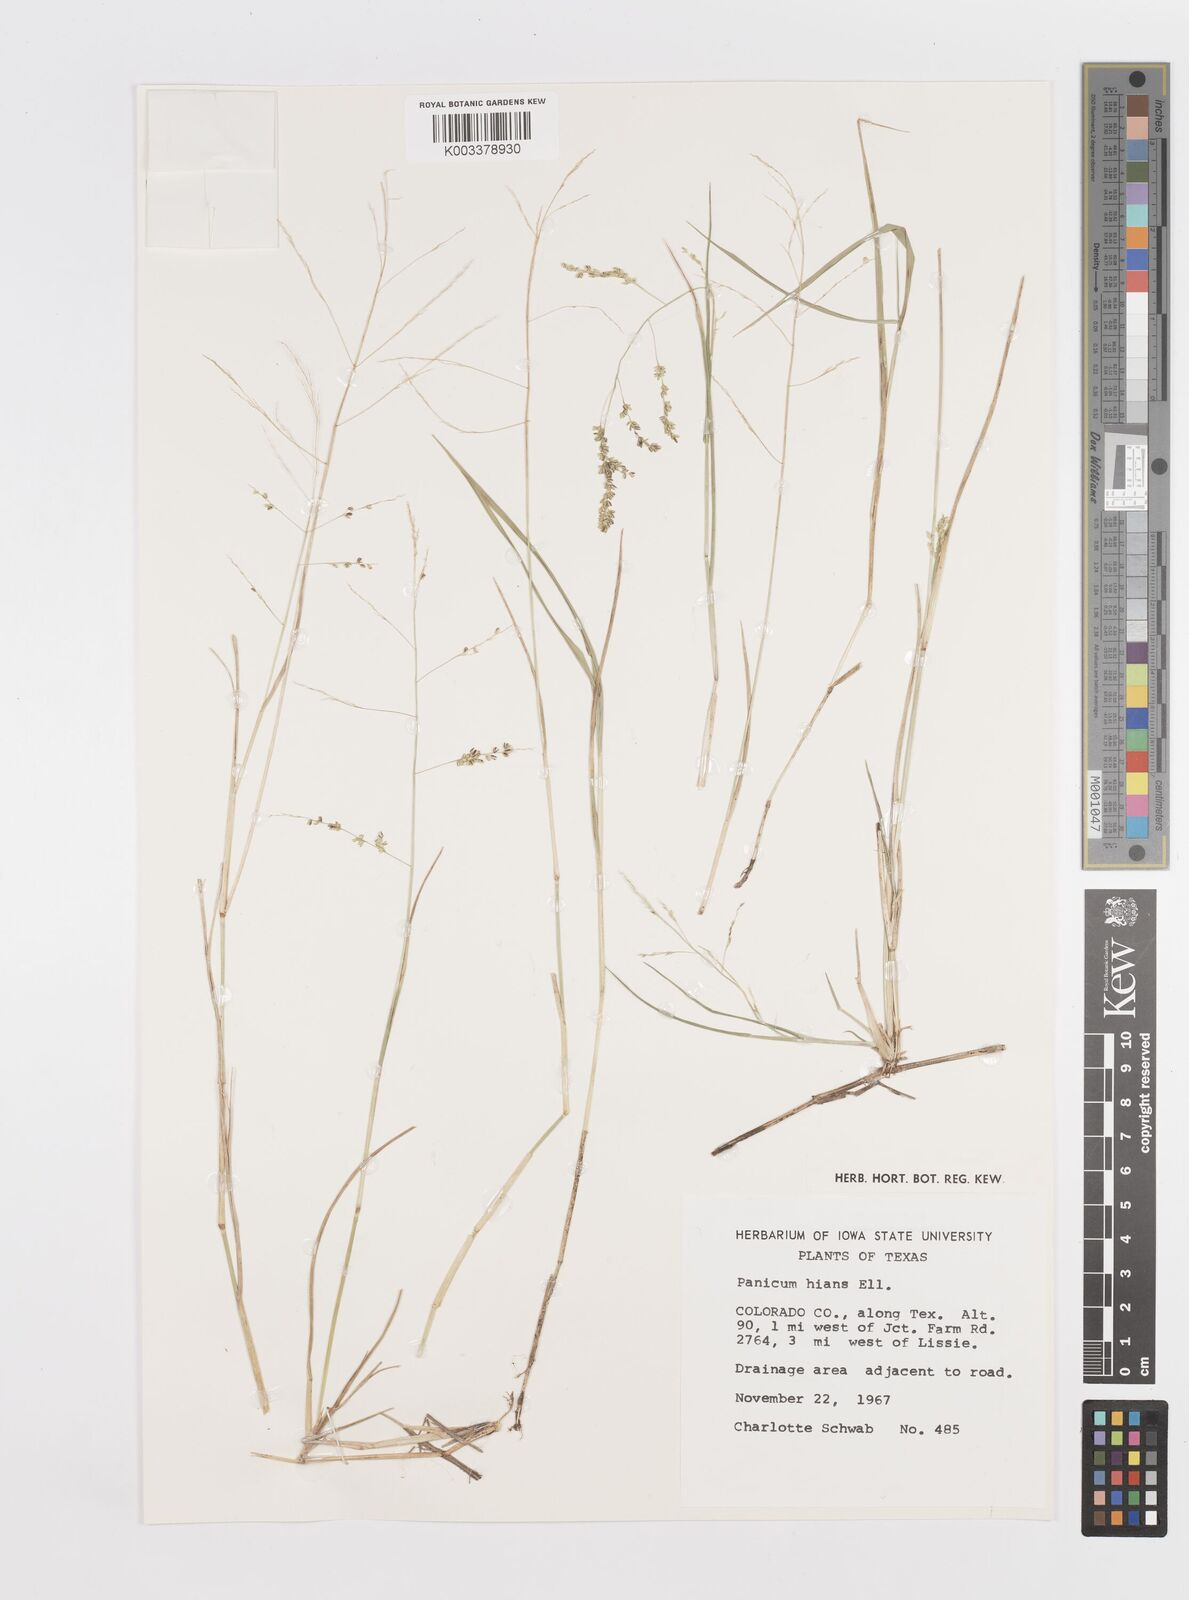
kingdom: Plantae
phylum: Tracheophyta
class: Liliopsida
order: Poales
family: Poaceae
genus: Steinchisma
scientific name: Steinchisma hians
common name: Gaping panic grass
